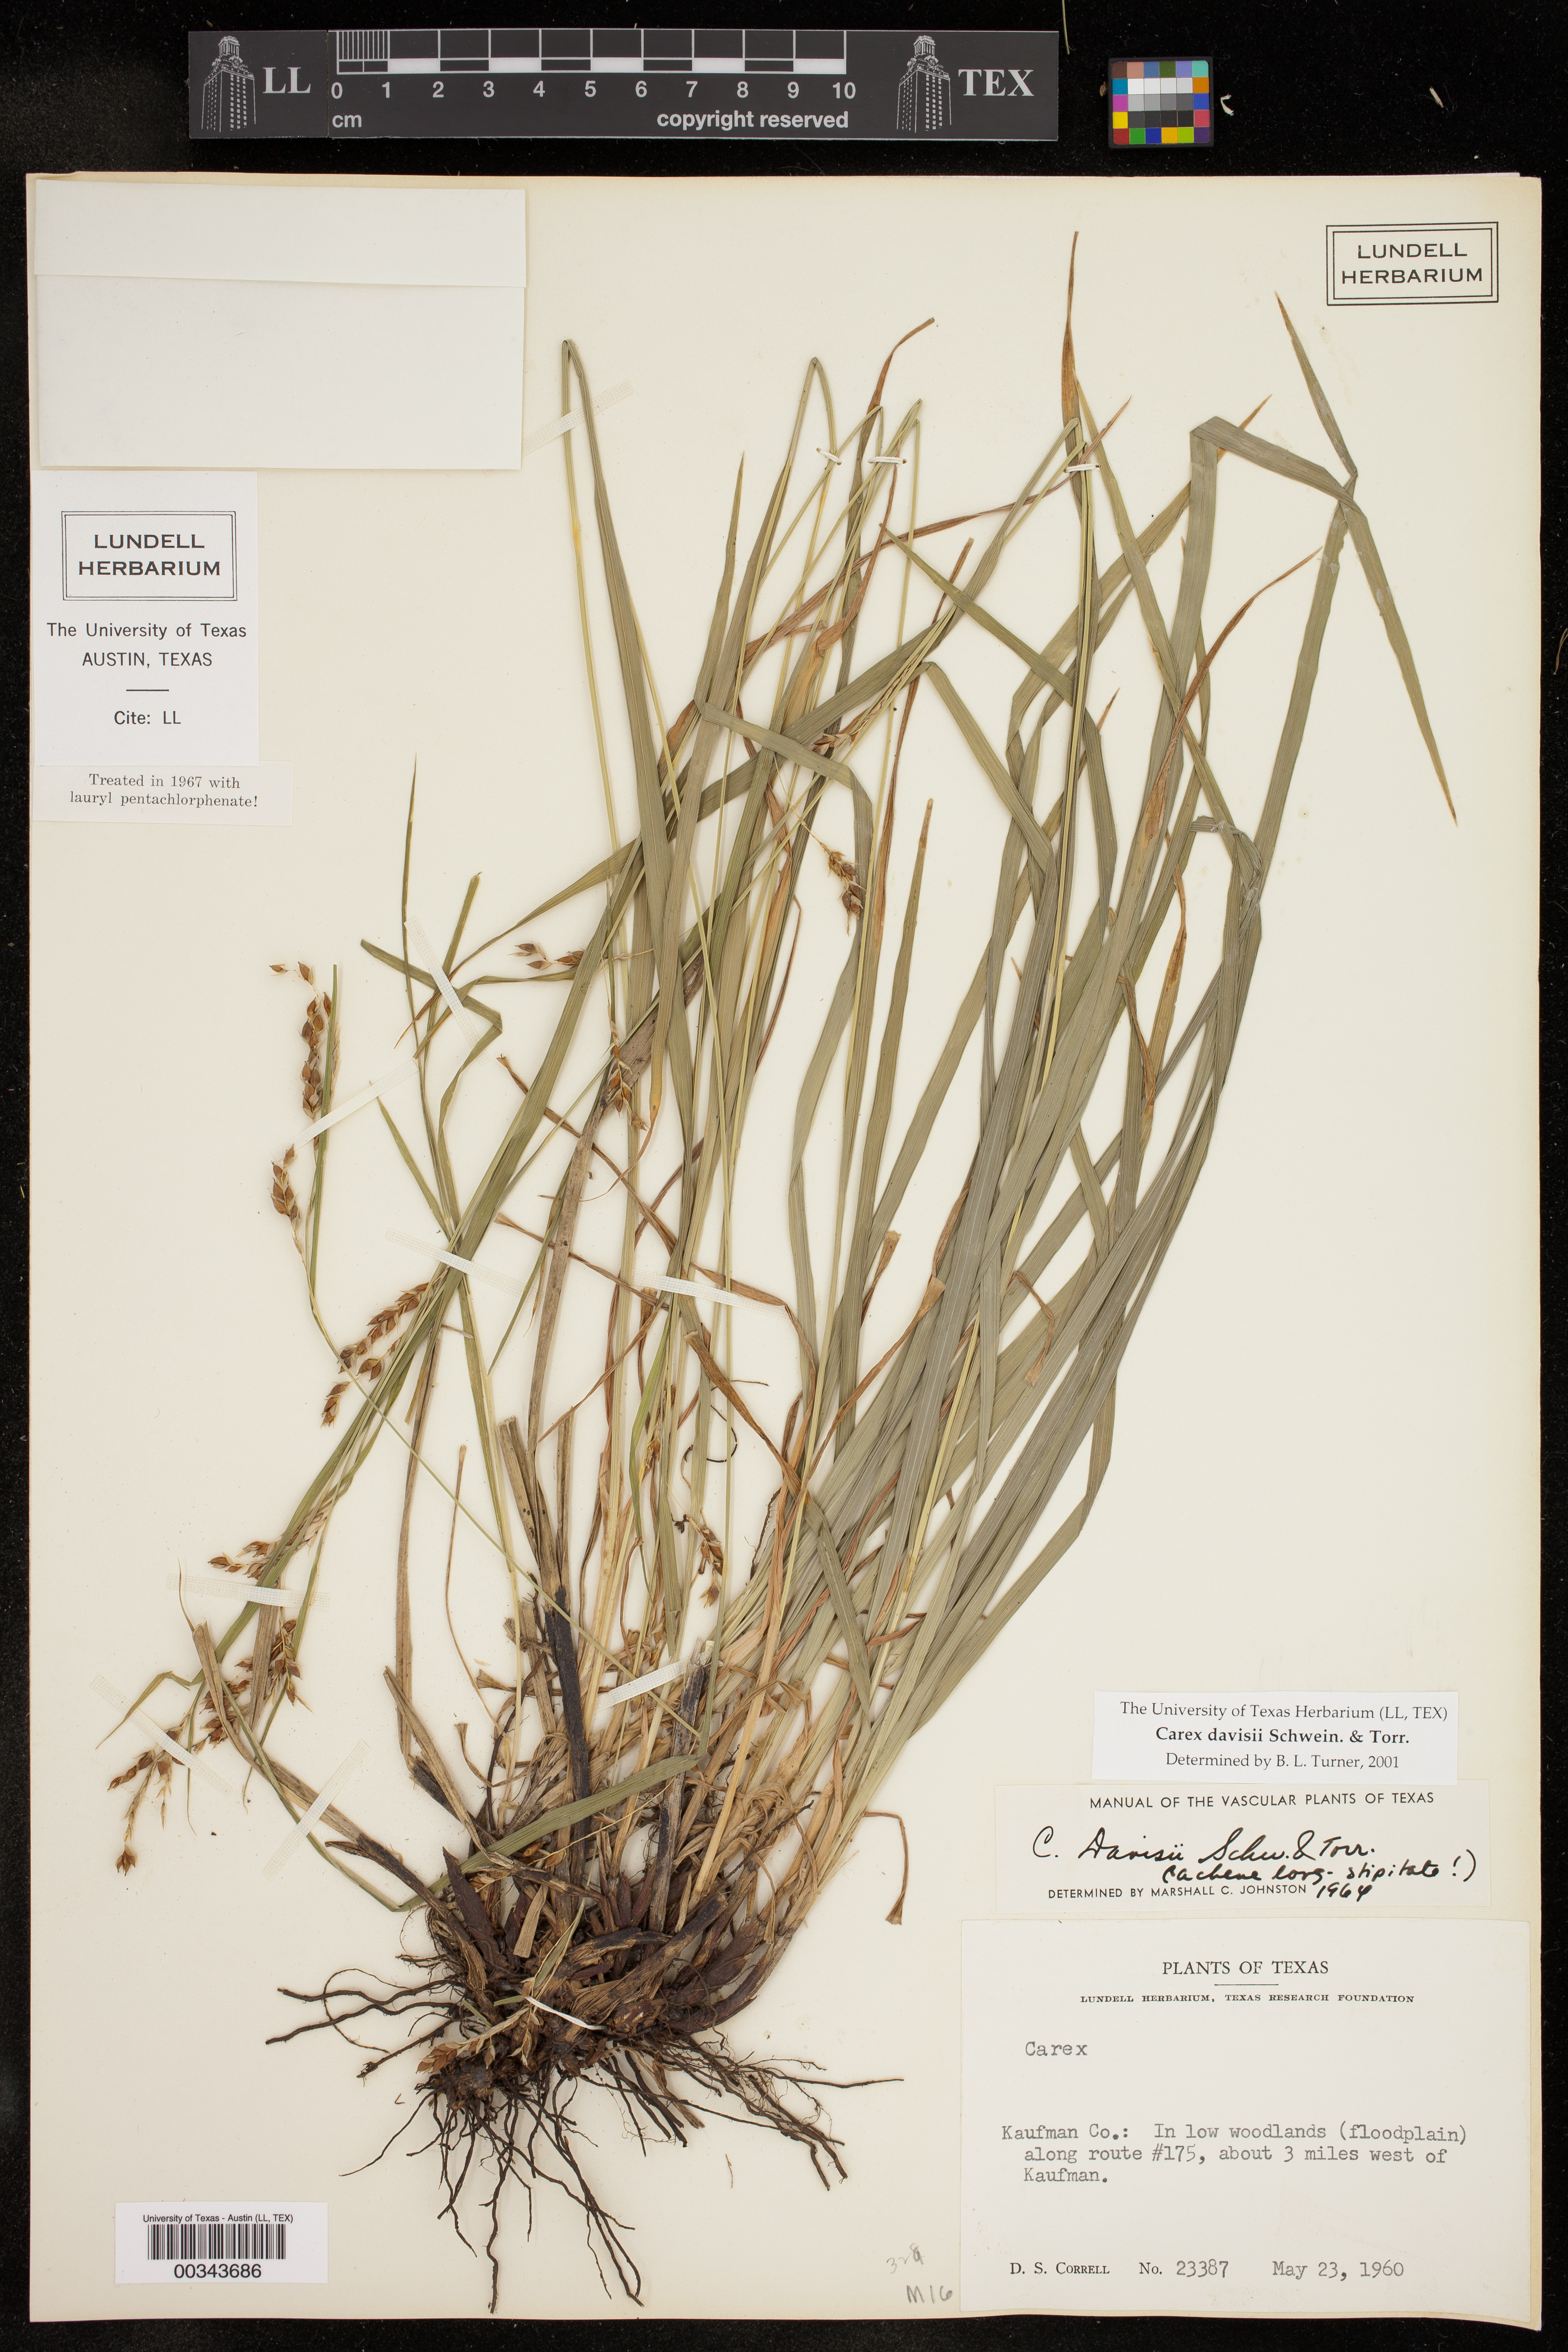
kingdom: Plantae
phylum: Tracheophyta
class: Liliopsida
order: Poales
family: Cyperaceae
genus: Carex
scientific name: Carex davisii
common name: Davis' sedge
